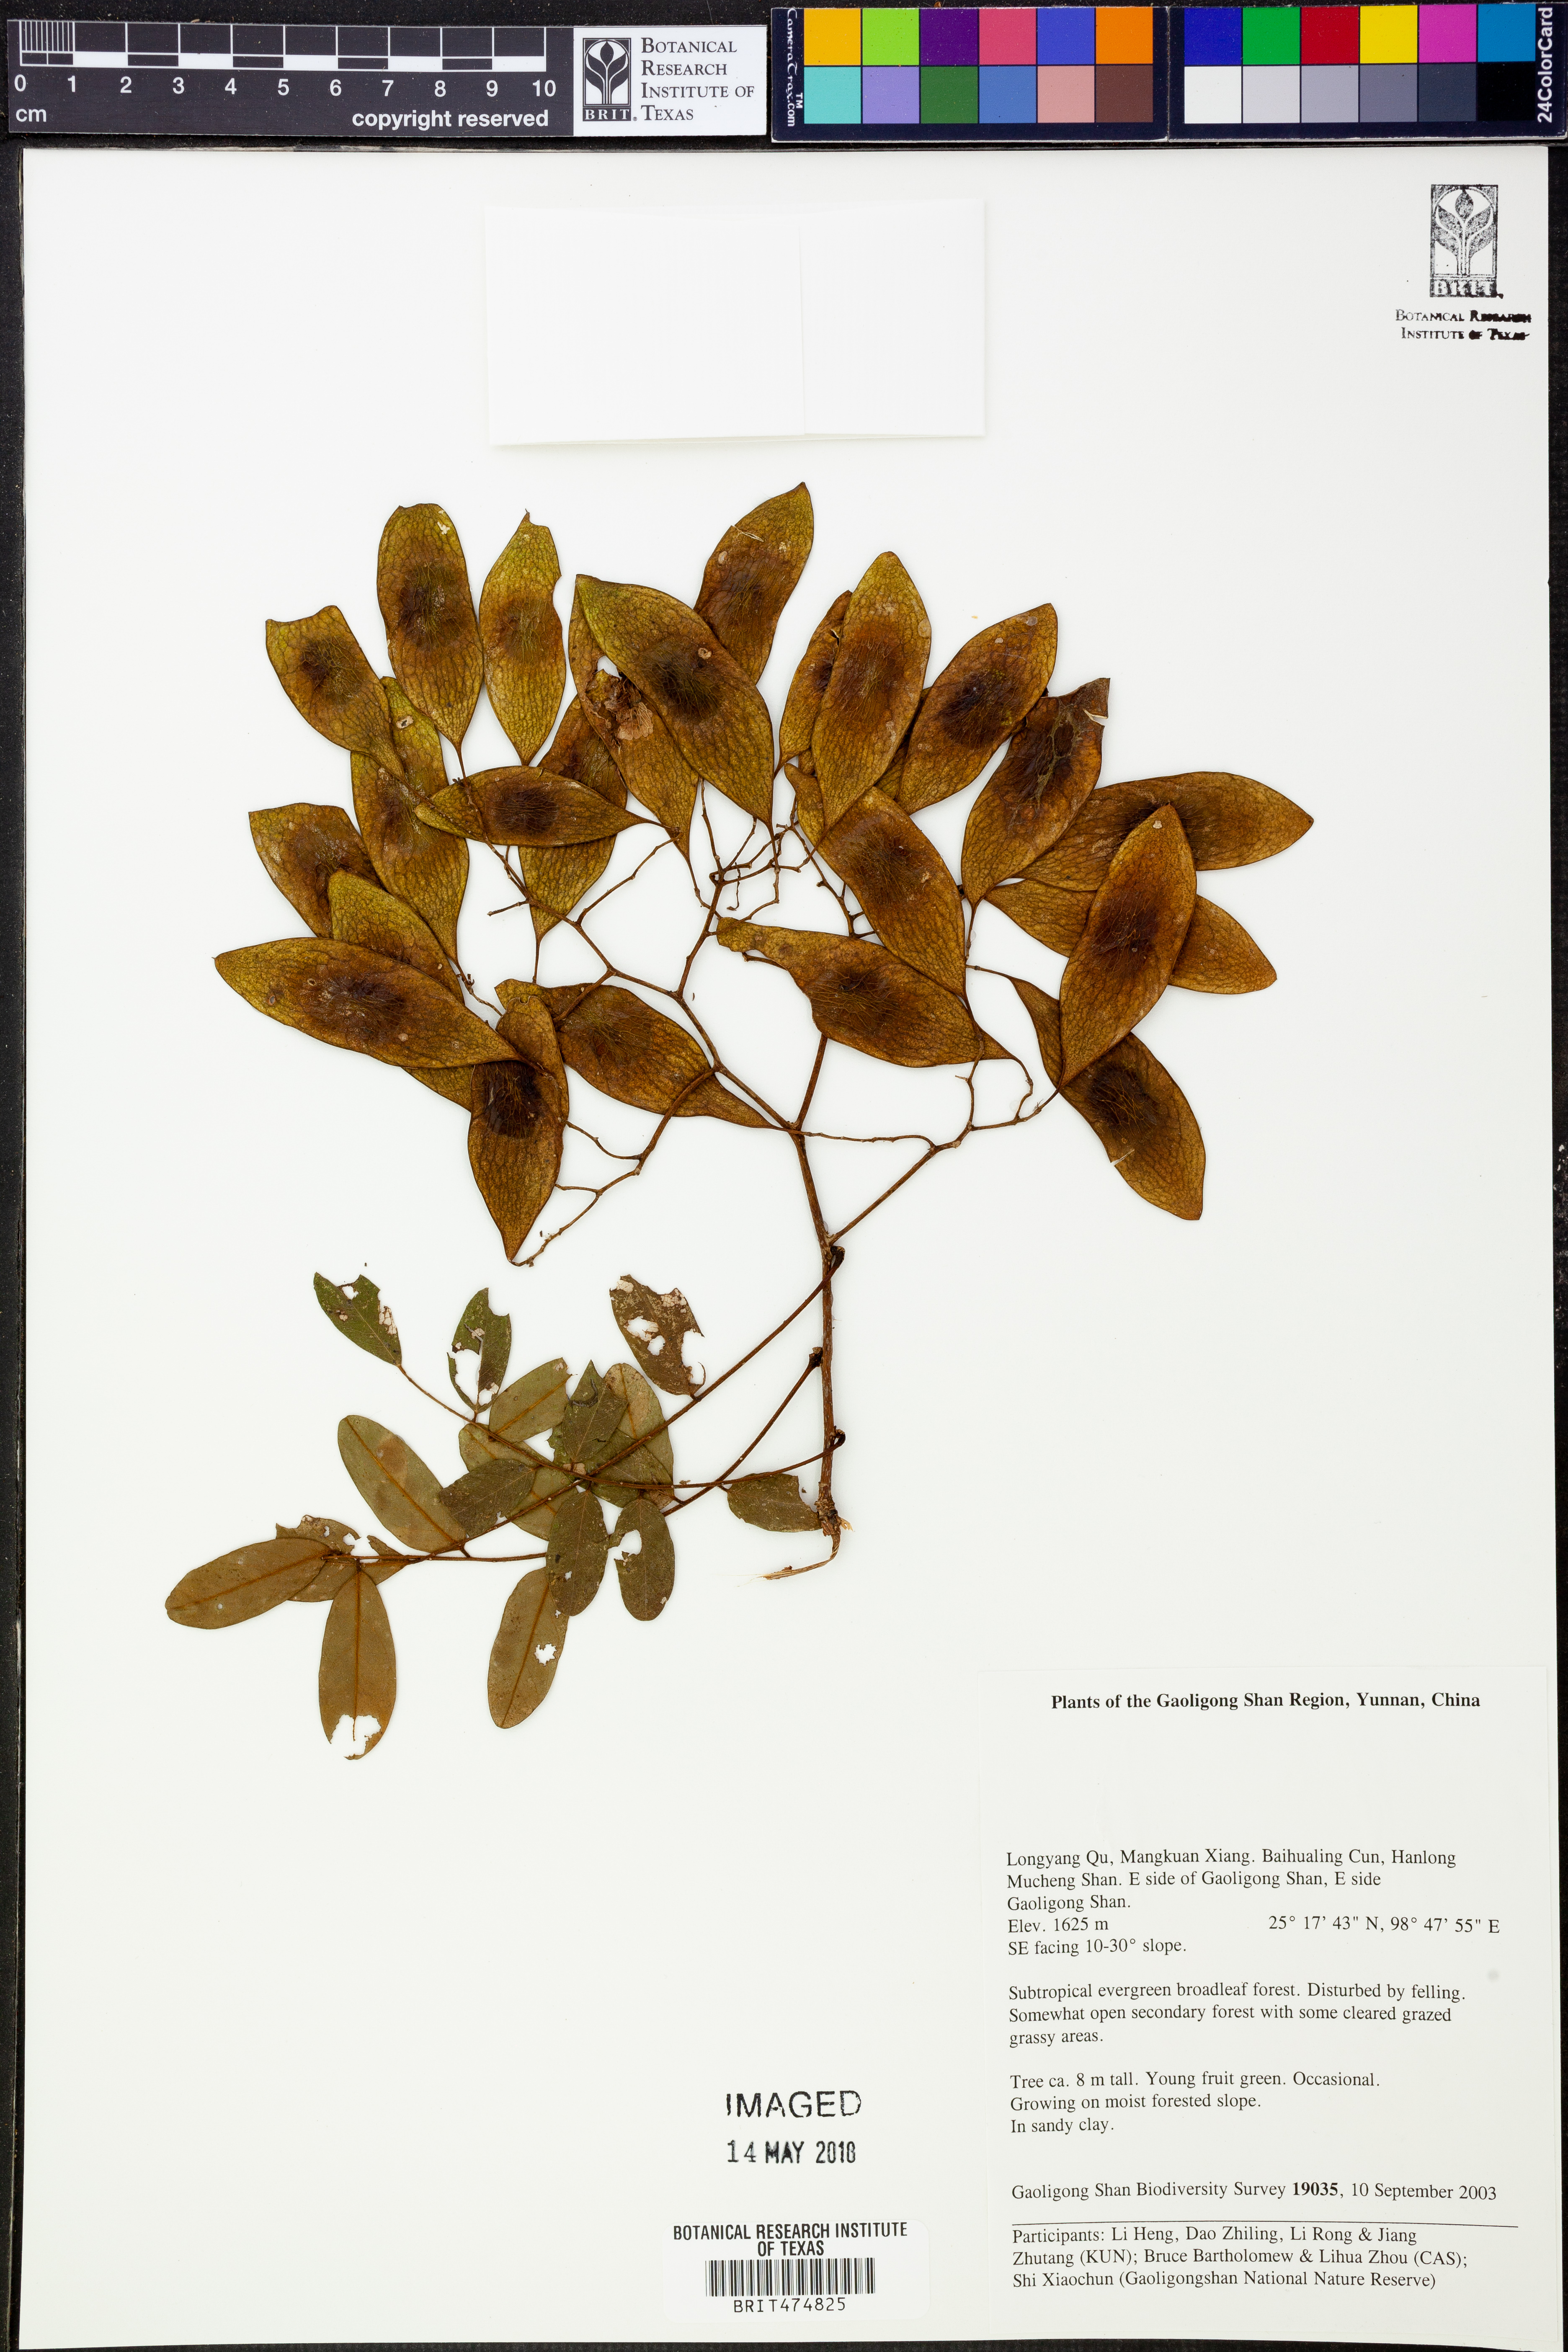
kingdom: Plantae
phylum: Tracheophyta
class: Magnoliopsida
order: Fabales
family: Fabaceae
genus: Dalbergia
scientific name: Dalbergia yunnanensis
